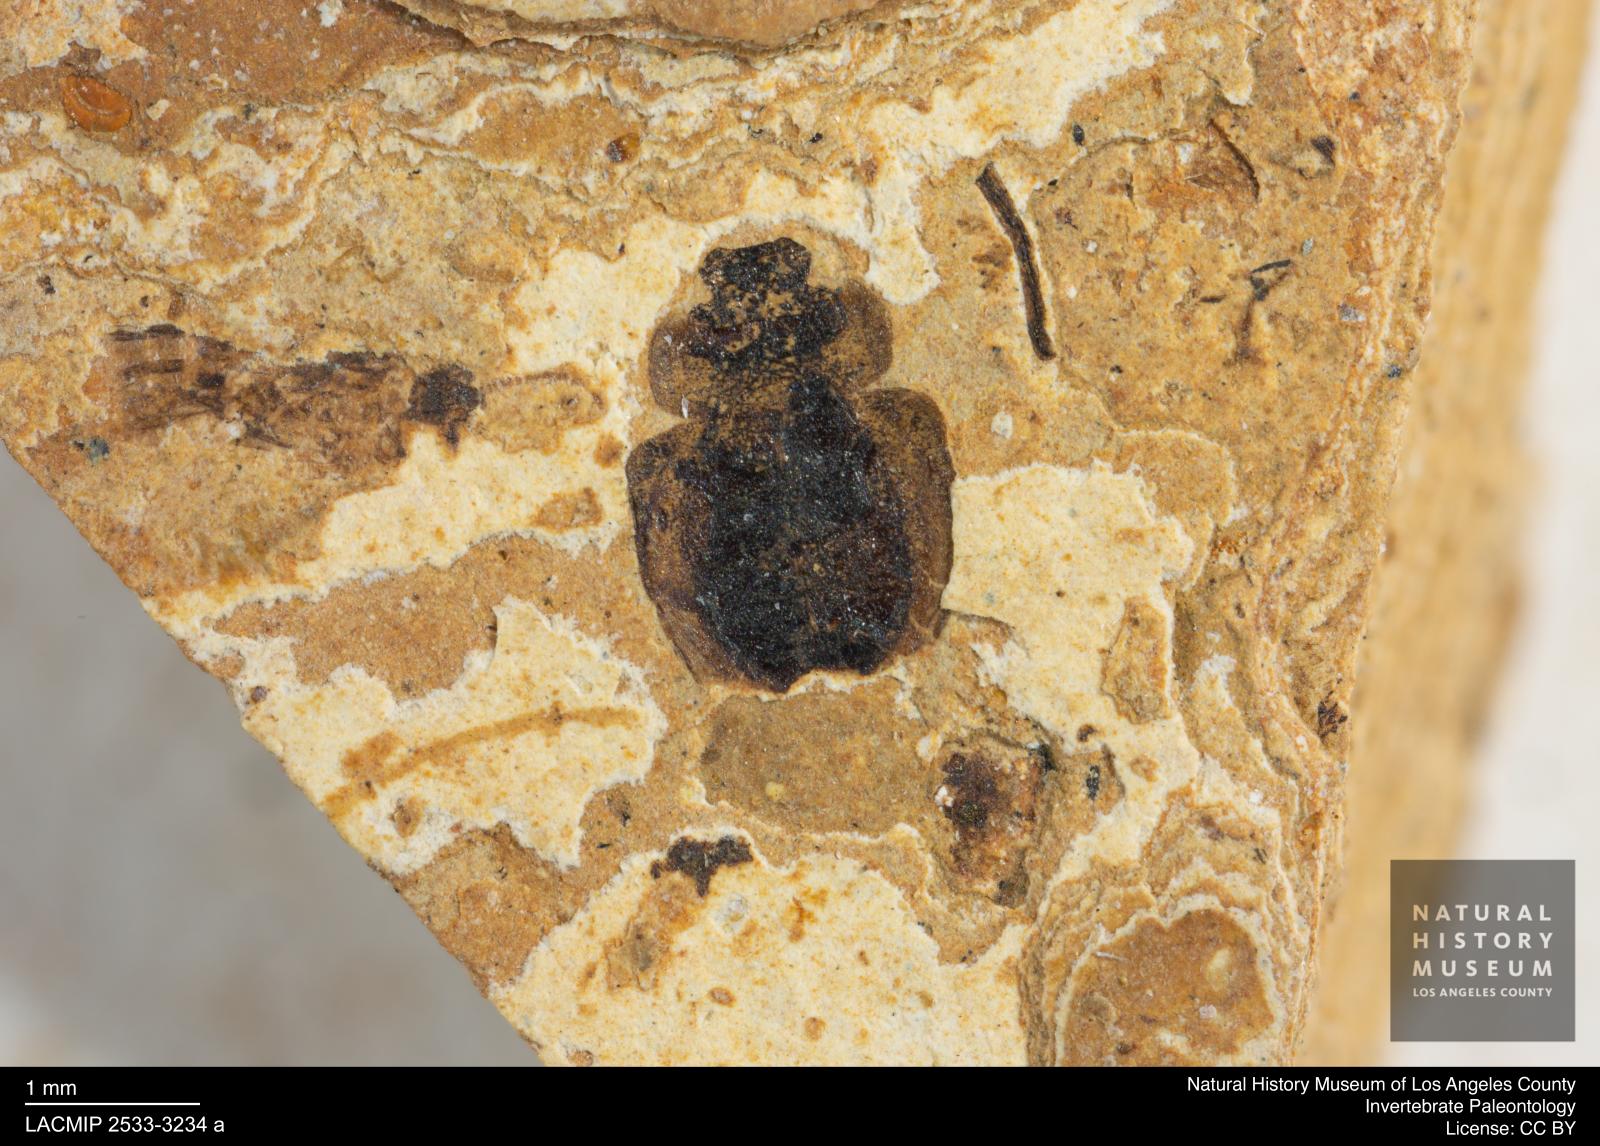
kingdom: Animalia
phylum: Arthropoda
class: Insecta
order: Coleoptera
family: Hydrophilidae
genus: Paracymus
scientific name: Paracymus excitatus
